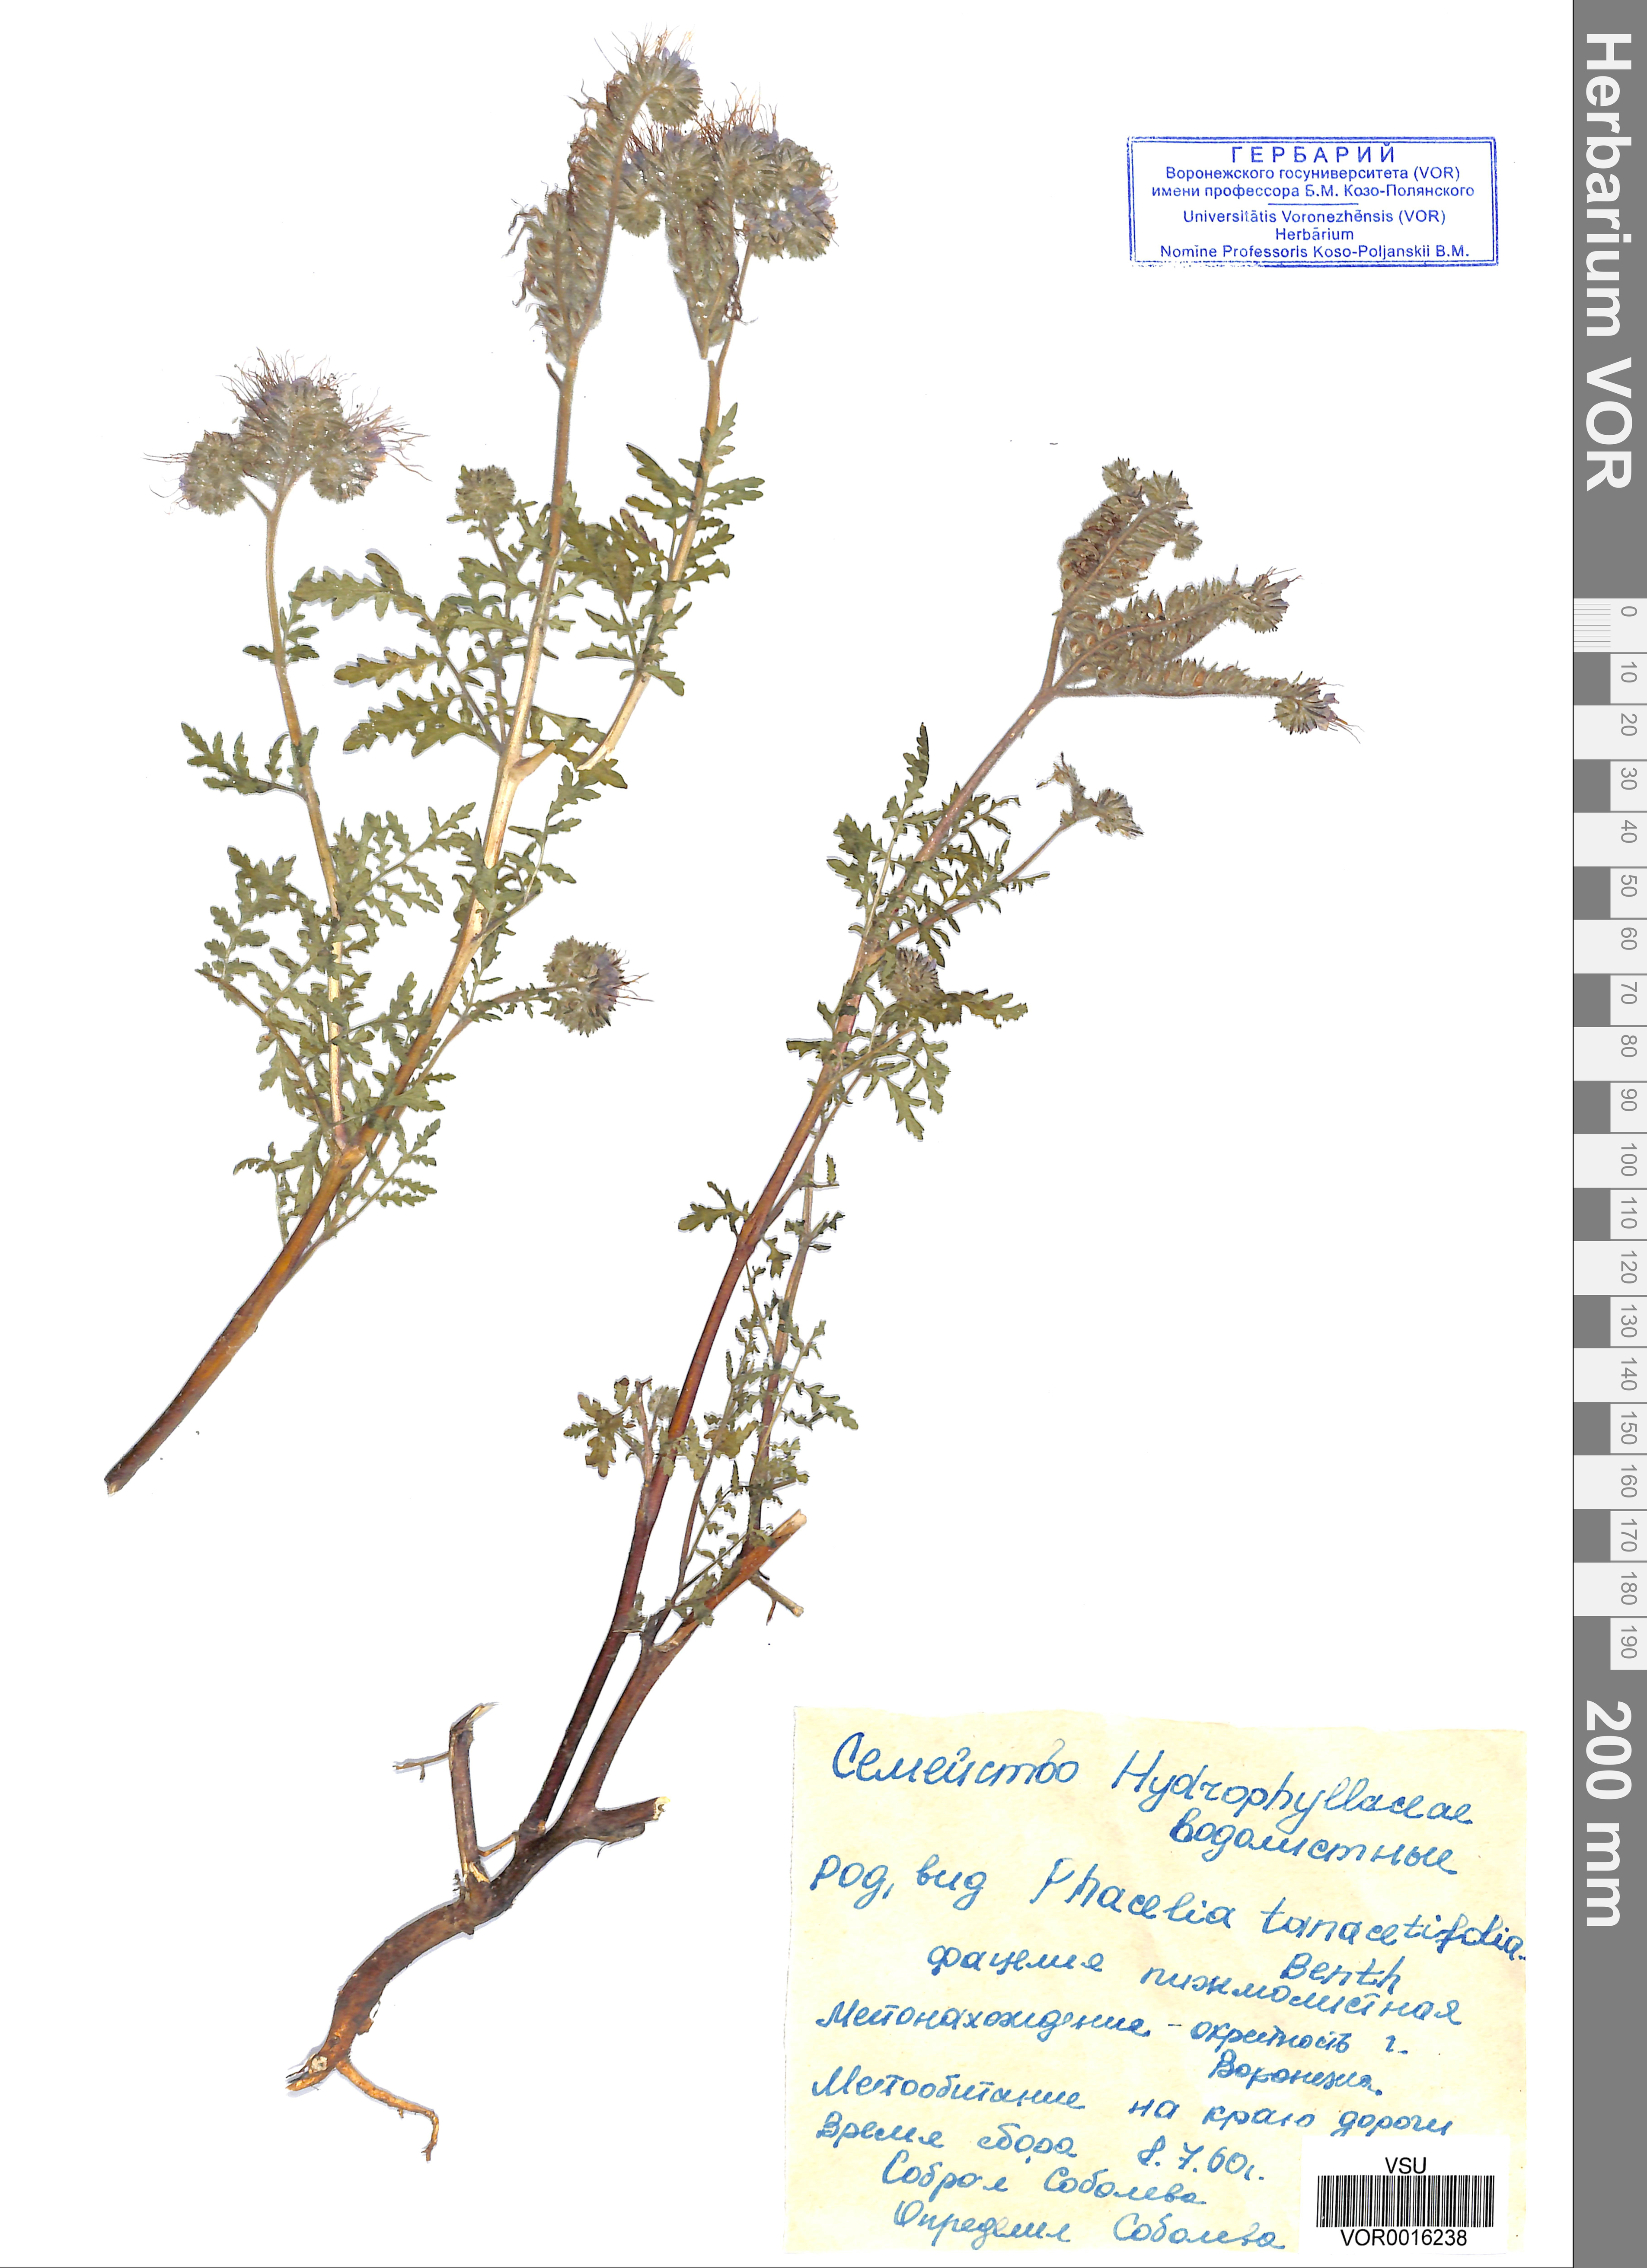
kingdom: Plantae
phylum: Tracheophyta
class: Magnoliopsida
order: Boraginales
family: Hydrophyllaceae
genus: Phacelia
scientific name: Phacelia tanacetifolia
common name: Phacelia
